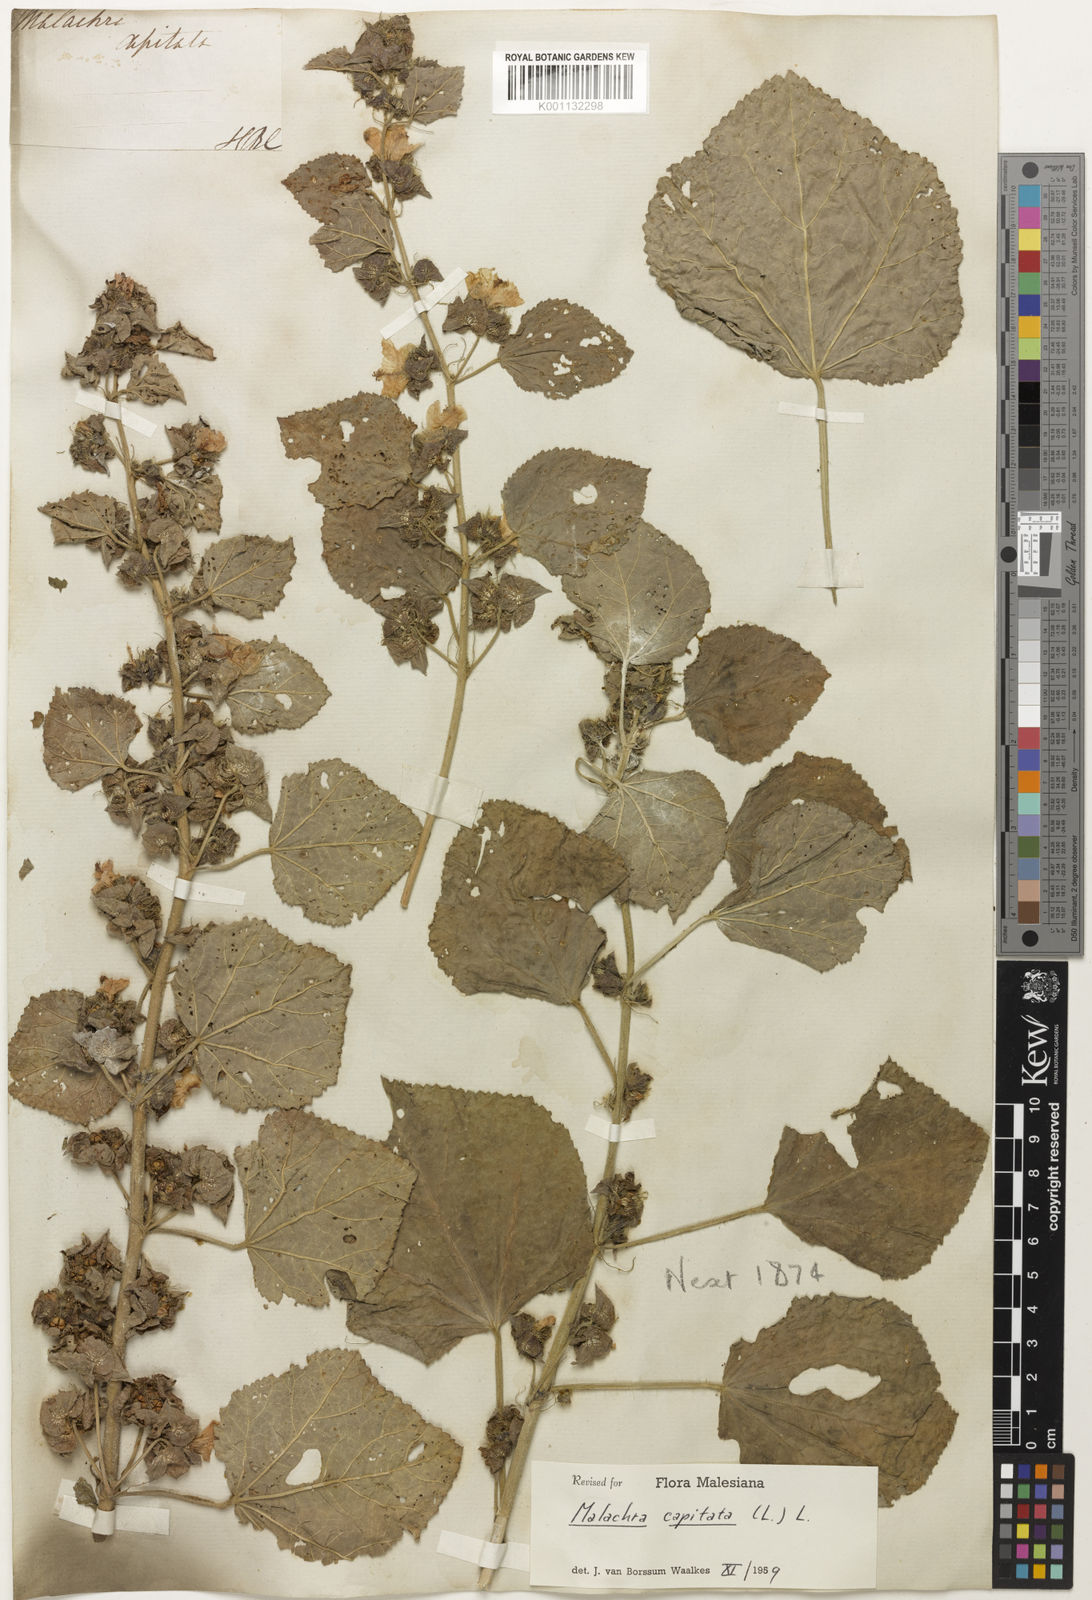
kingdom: Plantae
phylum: Tracheophyta
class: Magnoliopsida
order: Malvales
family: Malvaceae
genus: Malachra
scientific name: Malachra
